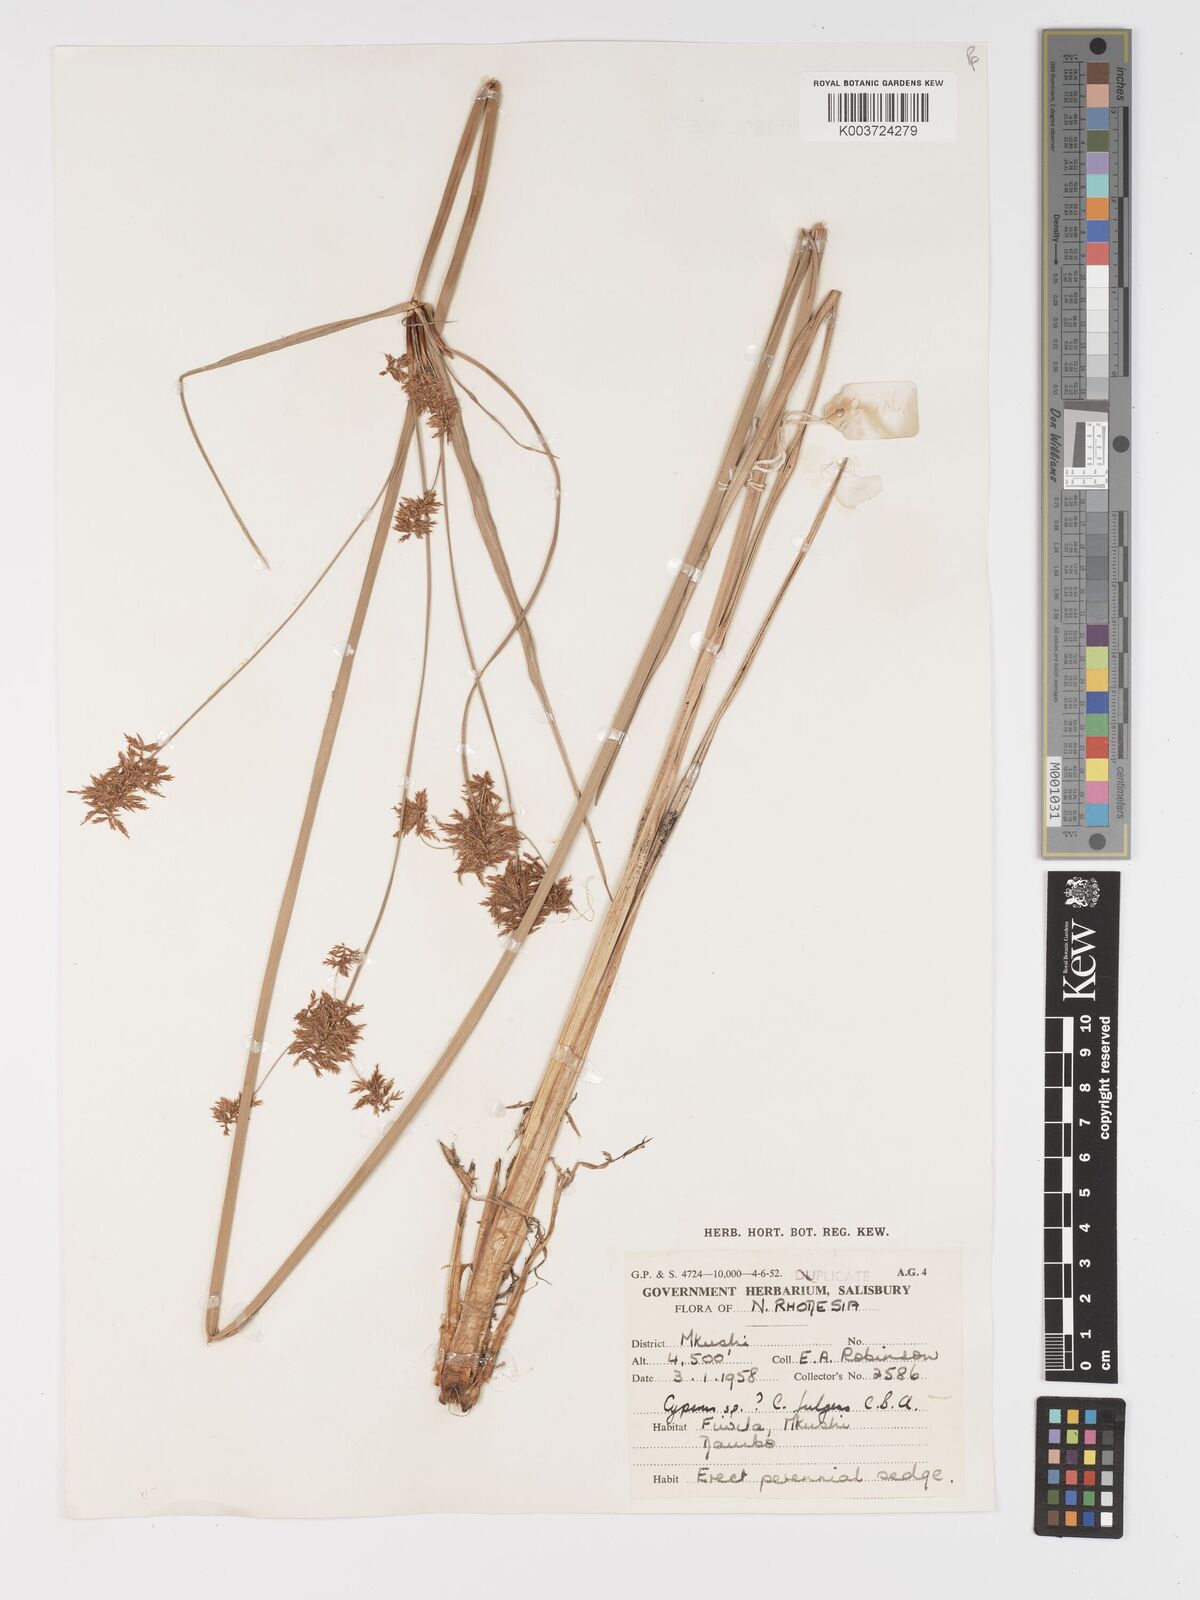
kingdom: Plantae
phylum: Tracheophyta
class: Liliopsida
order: Poales
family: Cyperaceae
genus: Cyperus
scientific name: Cyperus
